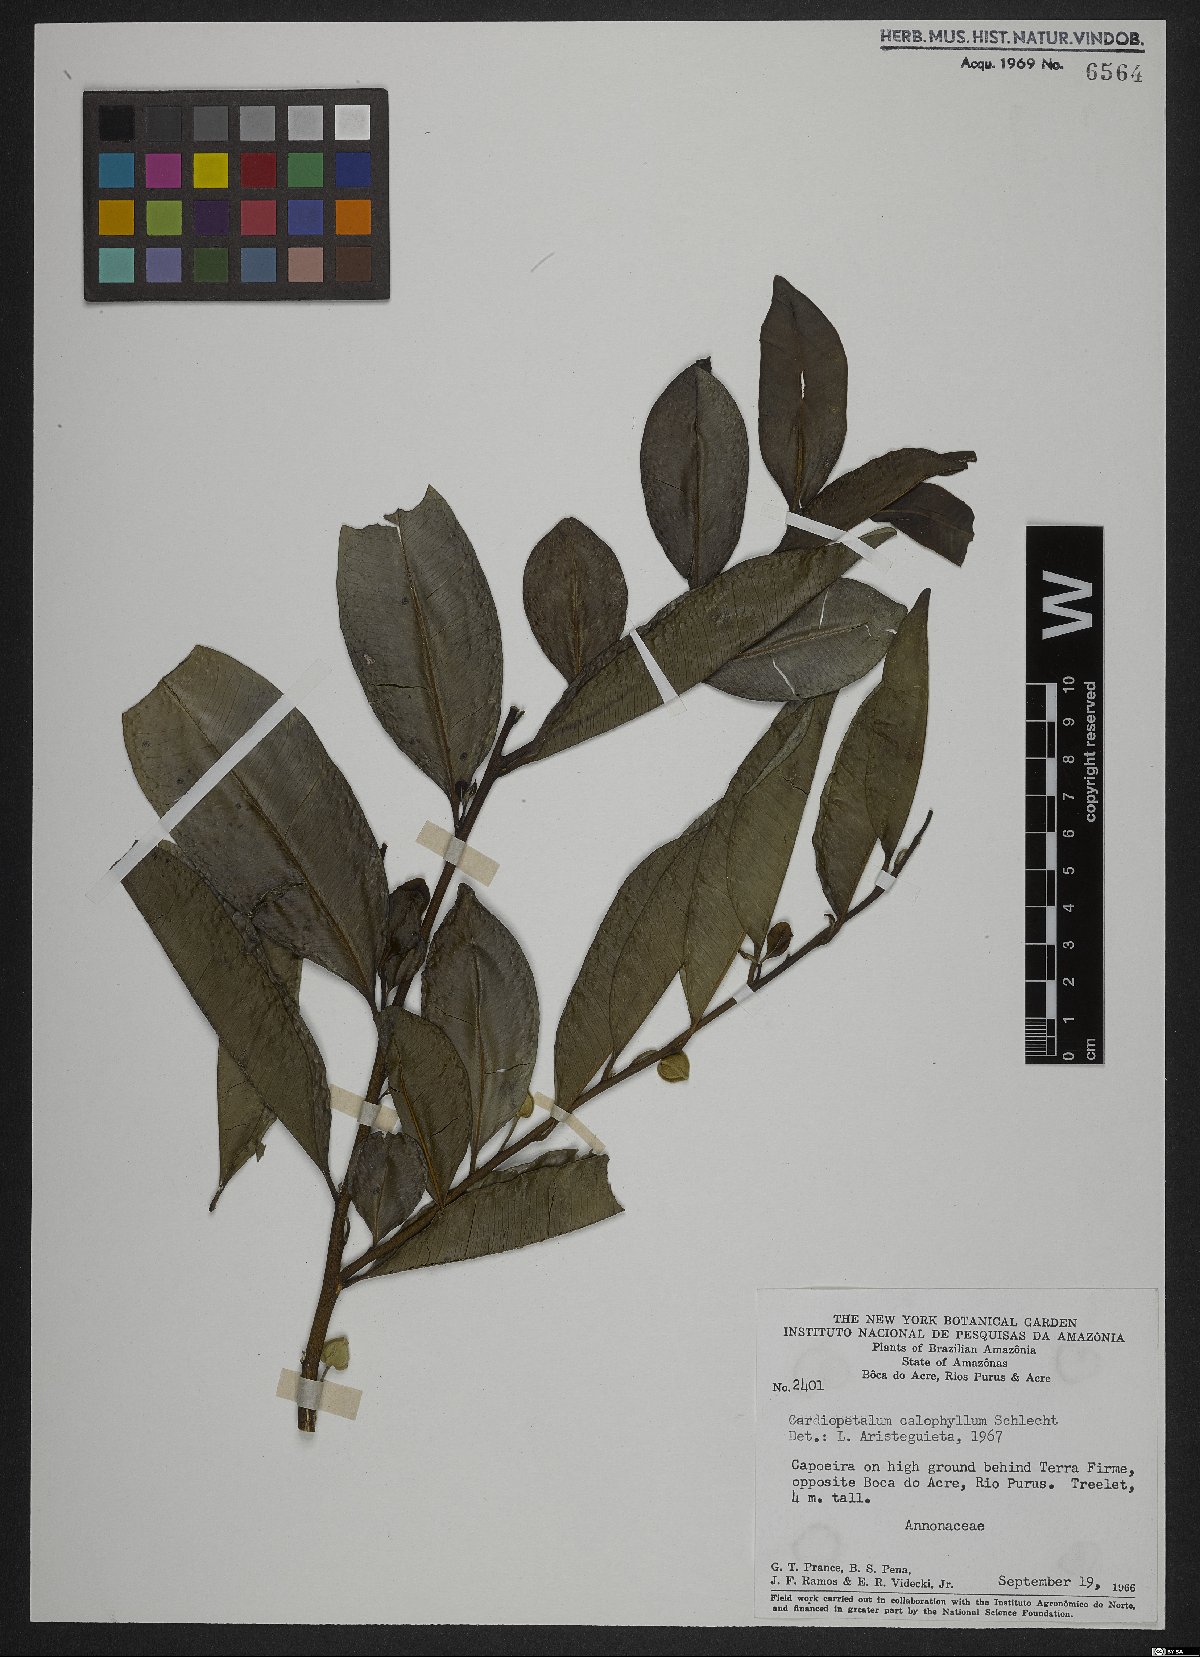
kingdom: Plantae
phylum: Tracheophyta
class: Magnoliopsida
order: Magnoliales
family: Annonaceae
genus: Cardiopetalum
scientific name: Cardiopetalum calophyllum
